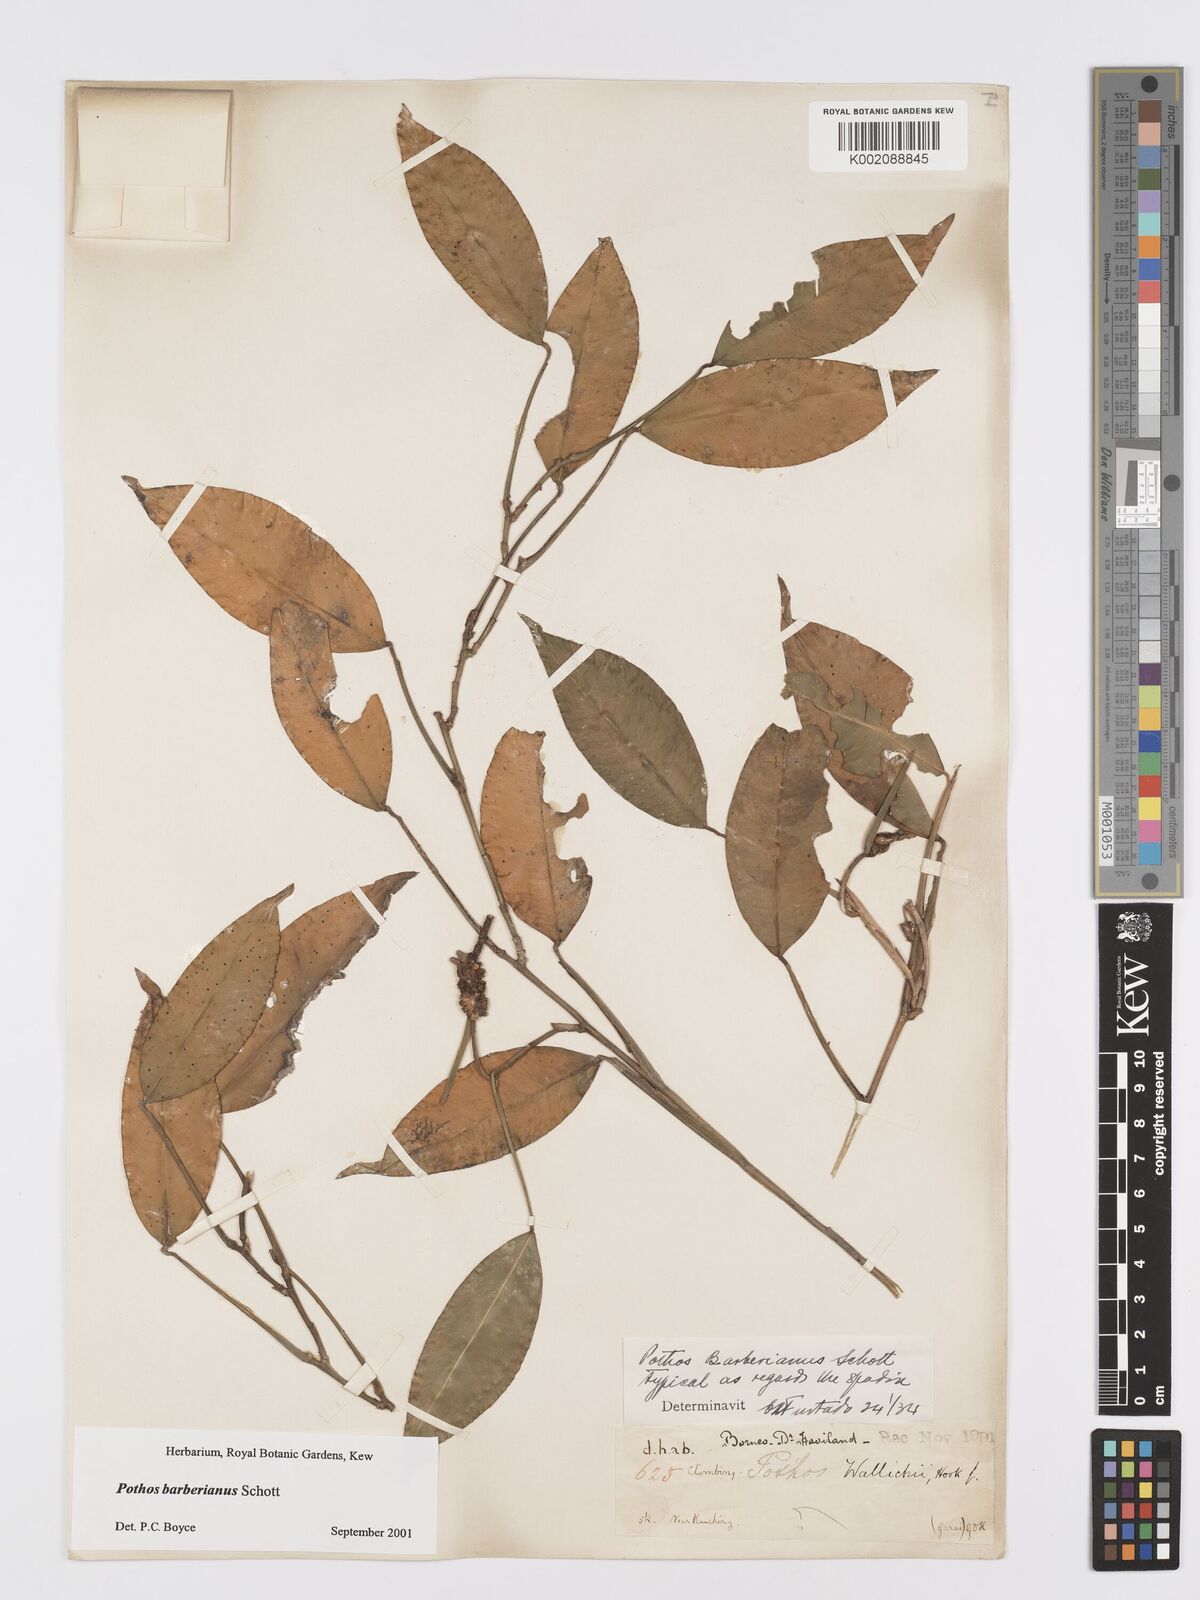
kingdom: Plantae
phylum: Tracheophyta
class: Liliopsida
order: Alismatales
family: Araceae
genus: Pothos
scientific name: Pothos barberianus
